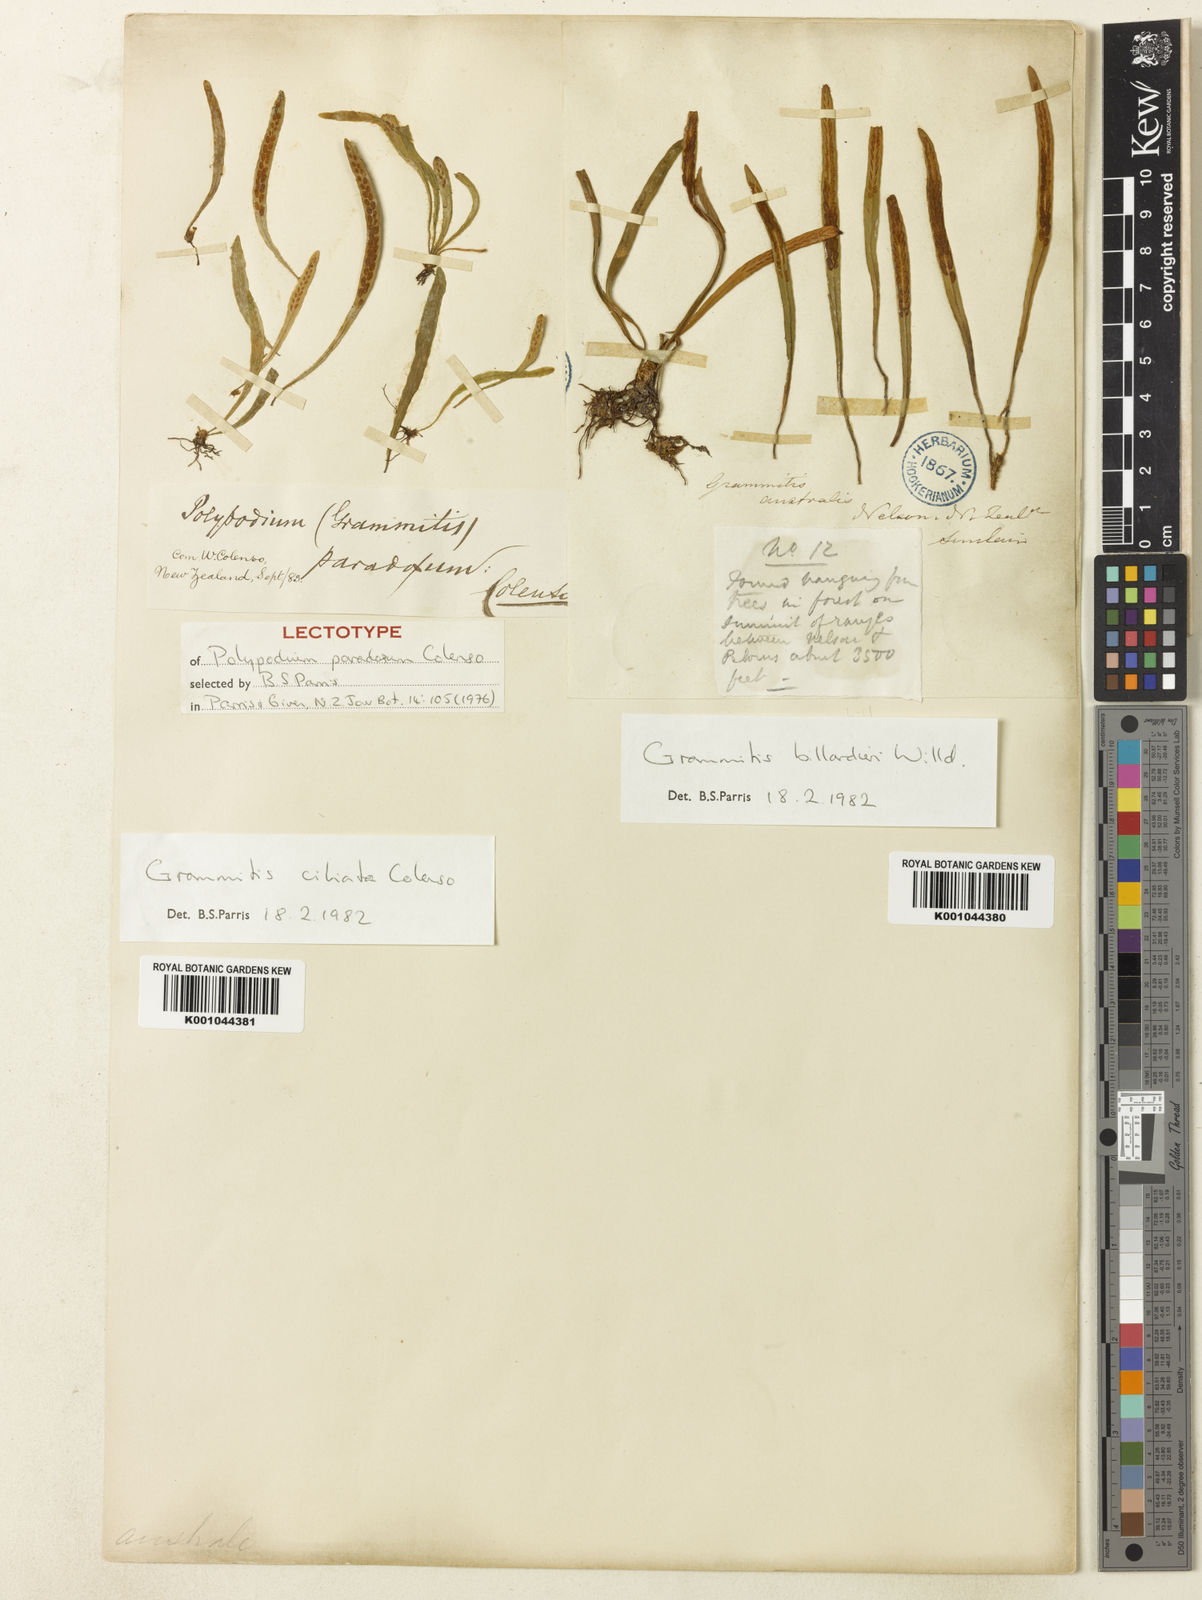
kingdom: Plantae
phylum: Tracheophyta
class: Polypodiopsida
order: Polypodiales
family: Polypodiaceae
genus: Notogrammitis
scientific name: Notogrammitis ciliata
